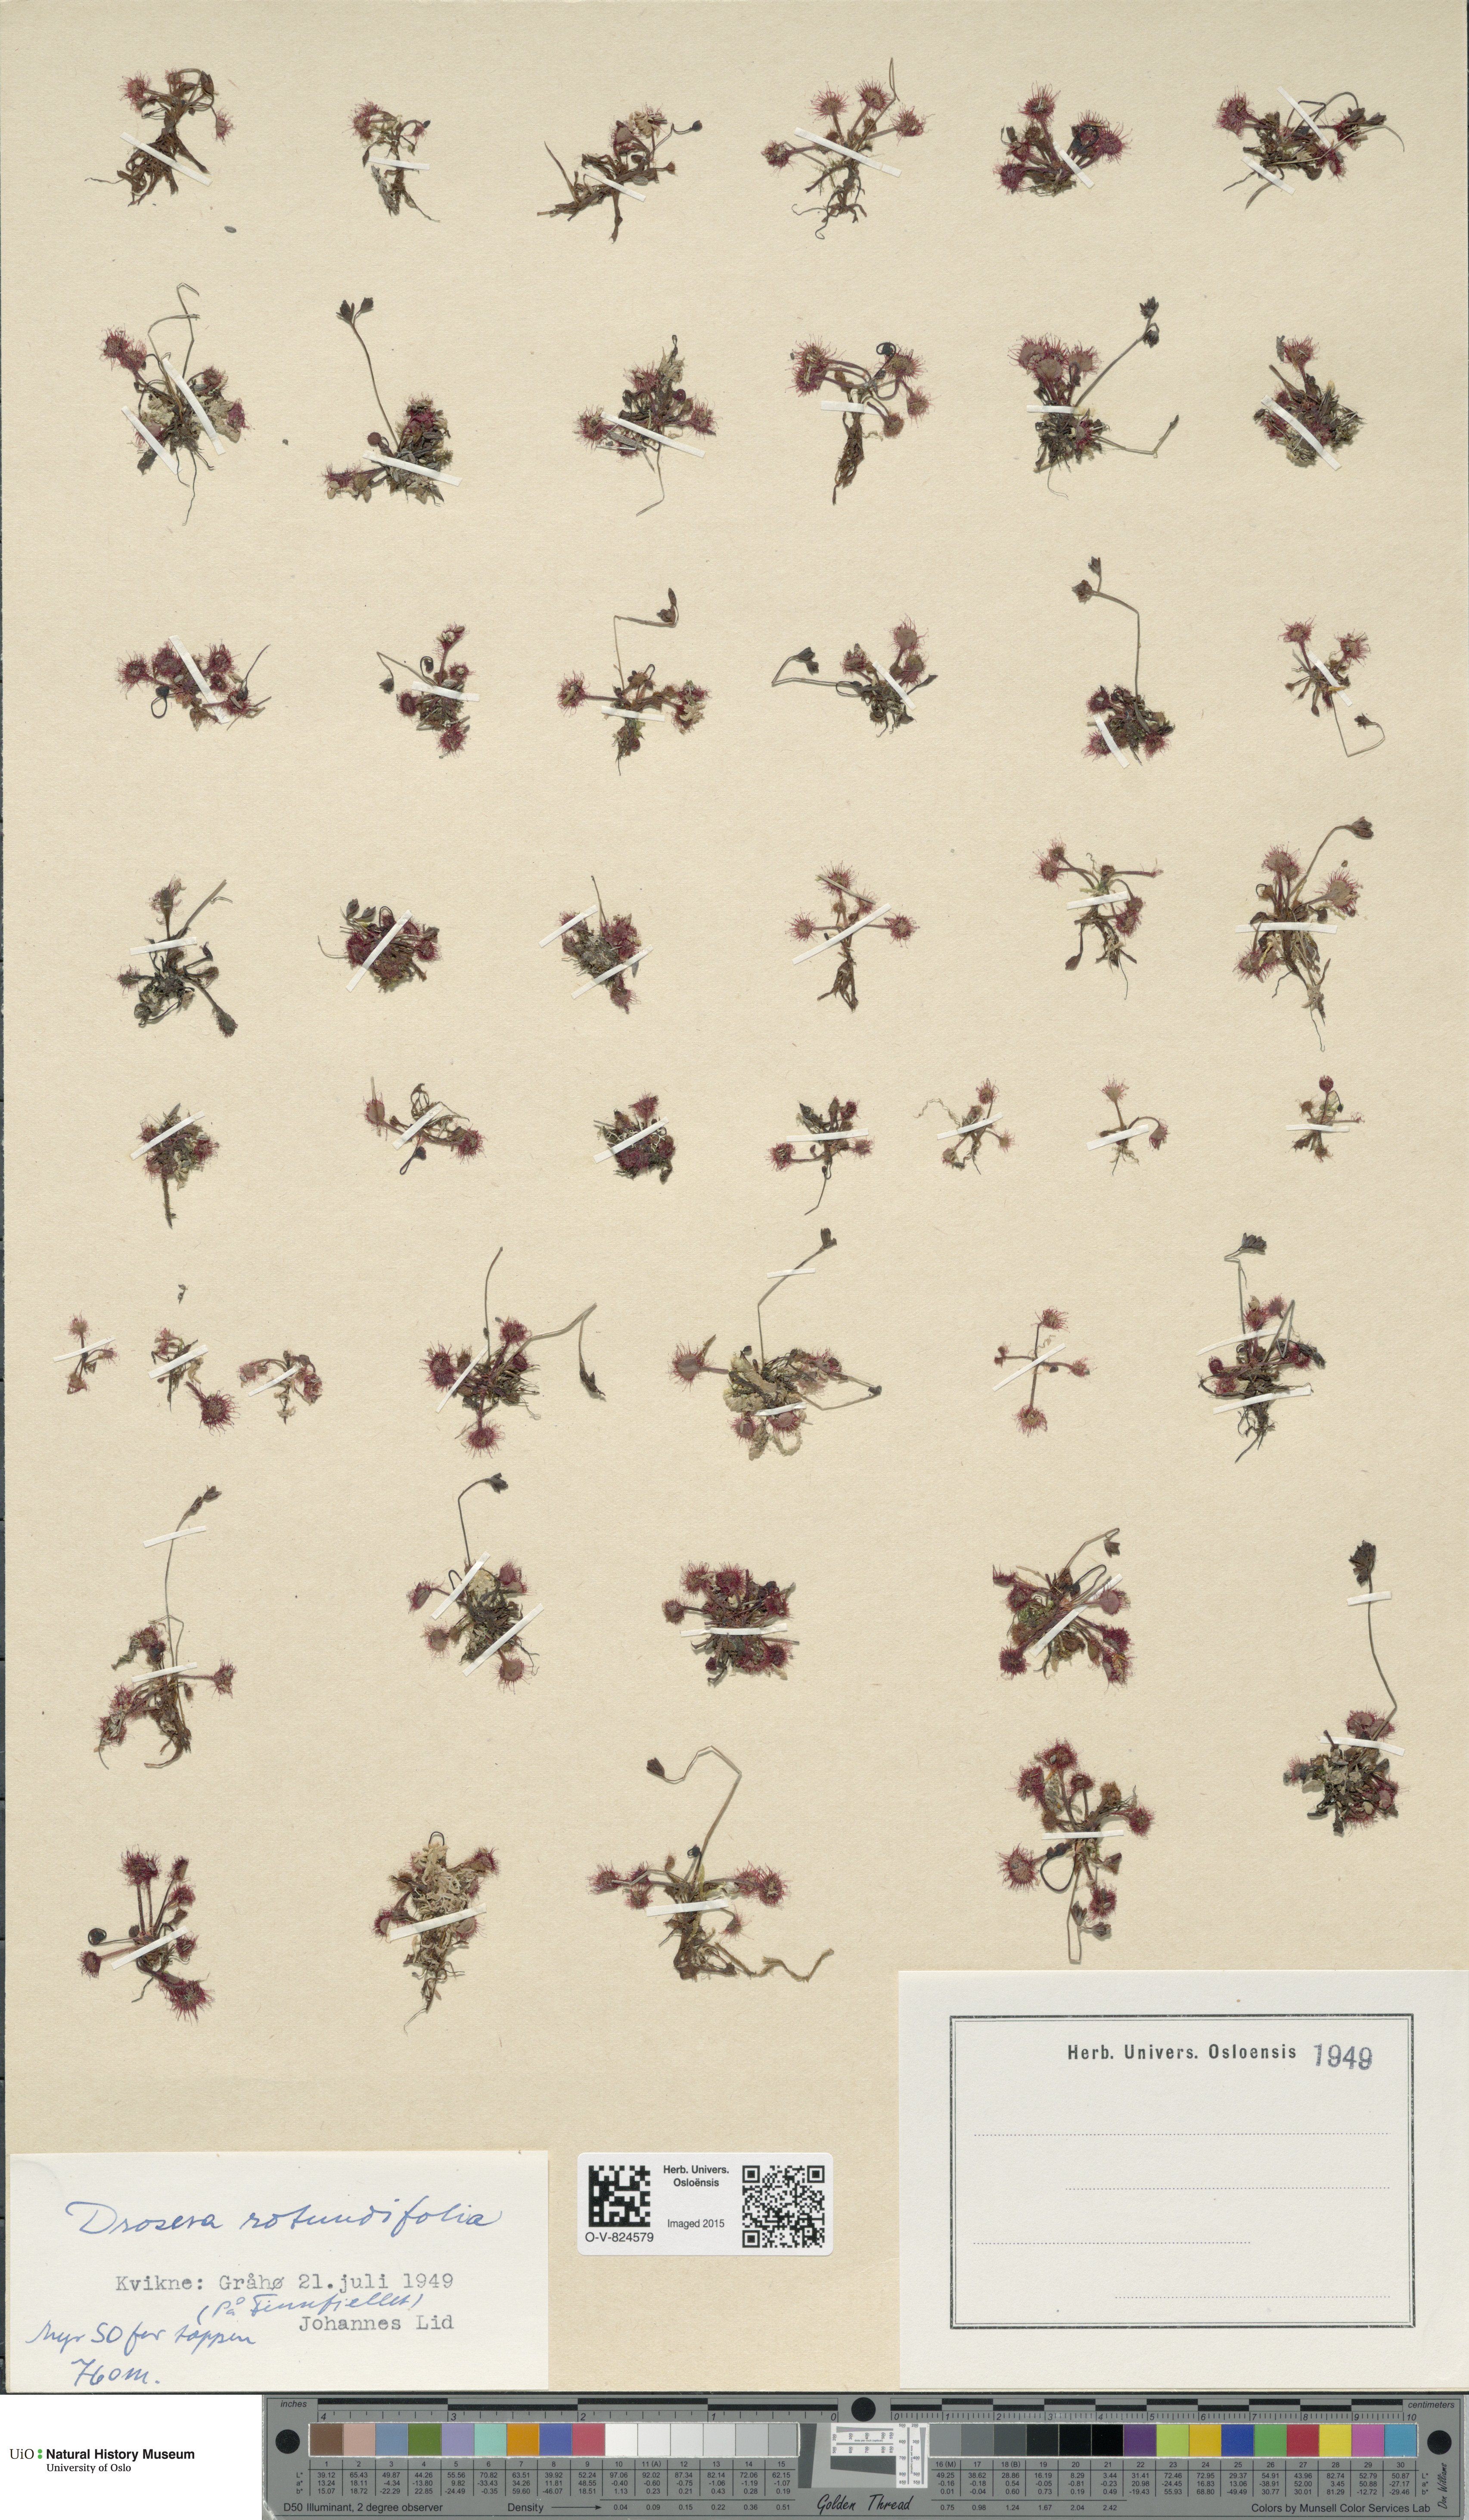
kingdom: Plantae
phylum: Tracheophyta
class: Magnoliopsida
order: Caryophyllales
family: Droseraceae
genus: Drosera
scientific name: Drosera rotundifolia
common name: Round-leaved sundew
